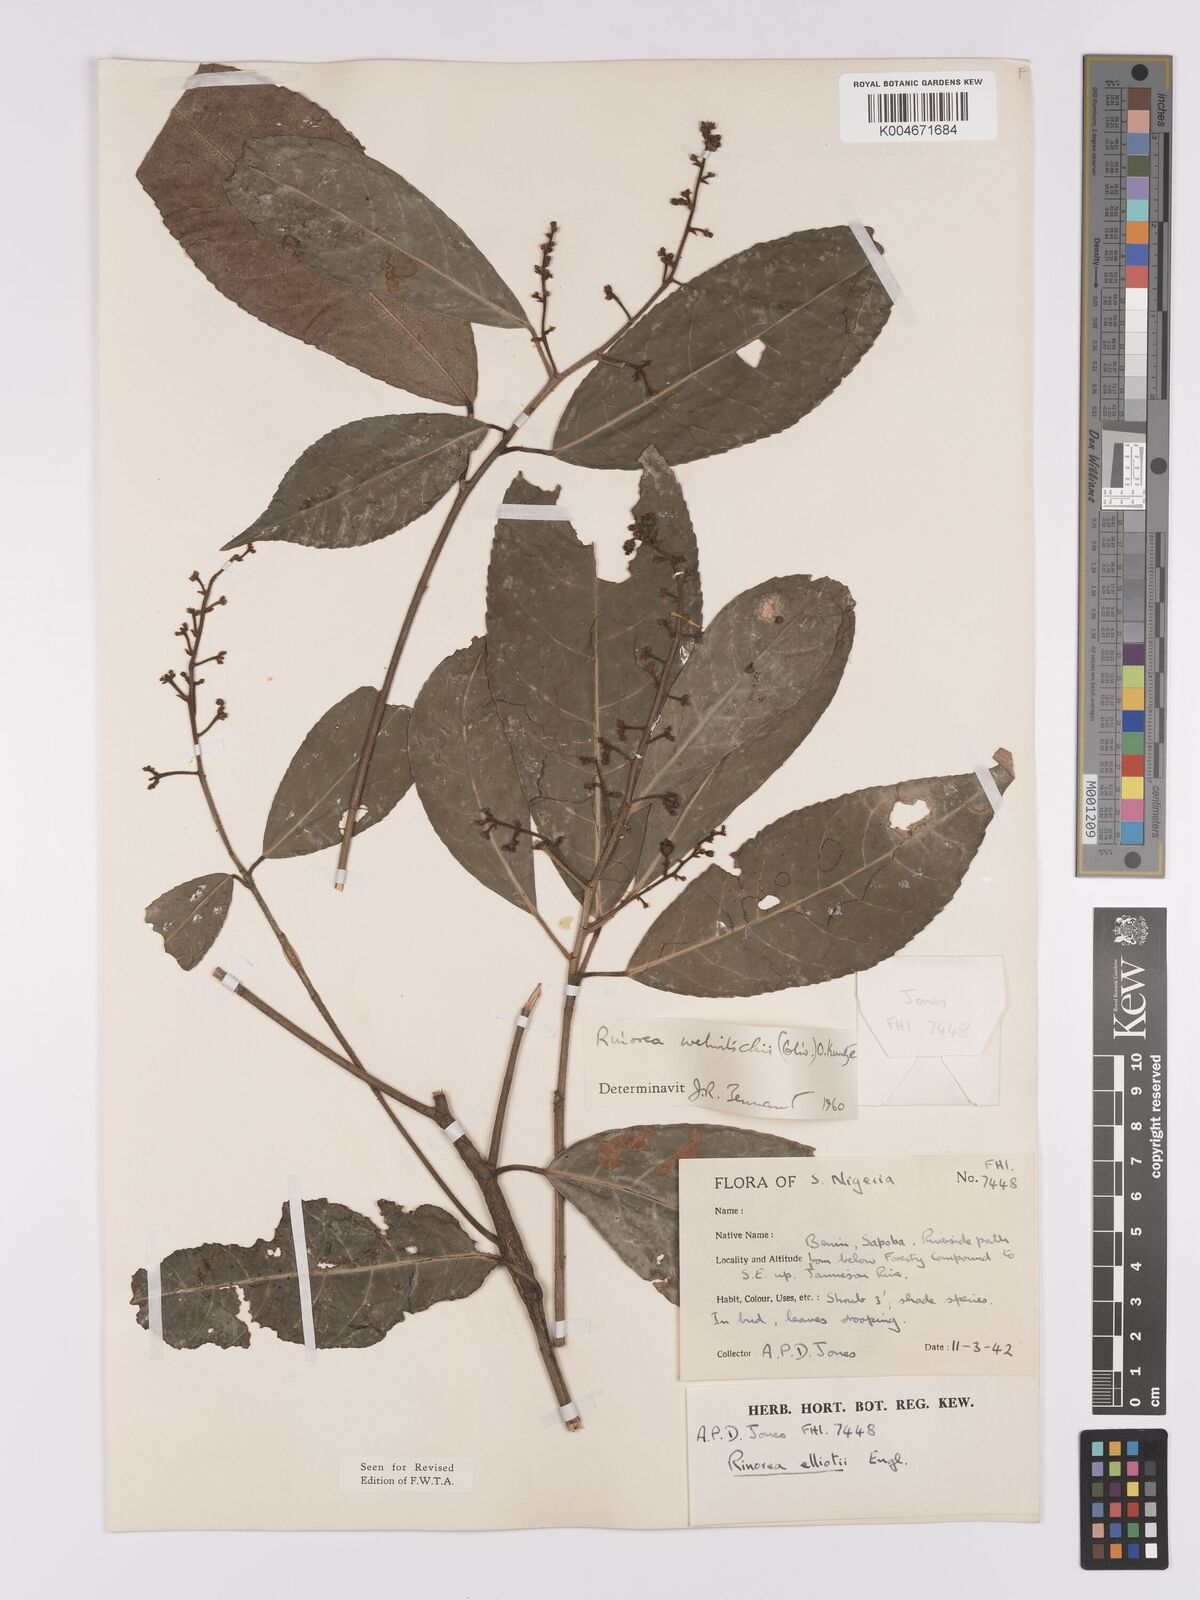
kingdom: Plantae
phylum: Tracheophyta
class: Magnoliopsida
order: Malpighiales
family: Violaceae
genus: Rinorea
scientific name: Rinorea welwitschii
